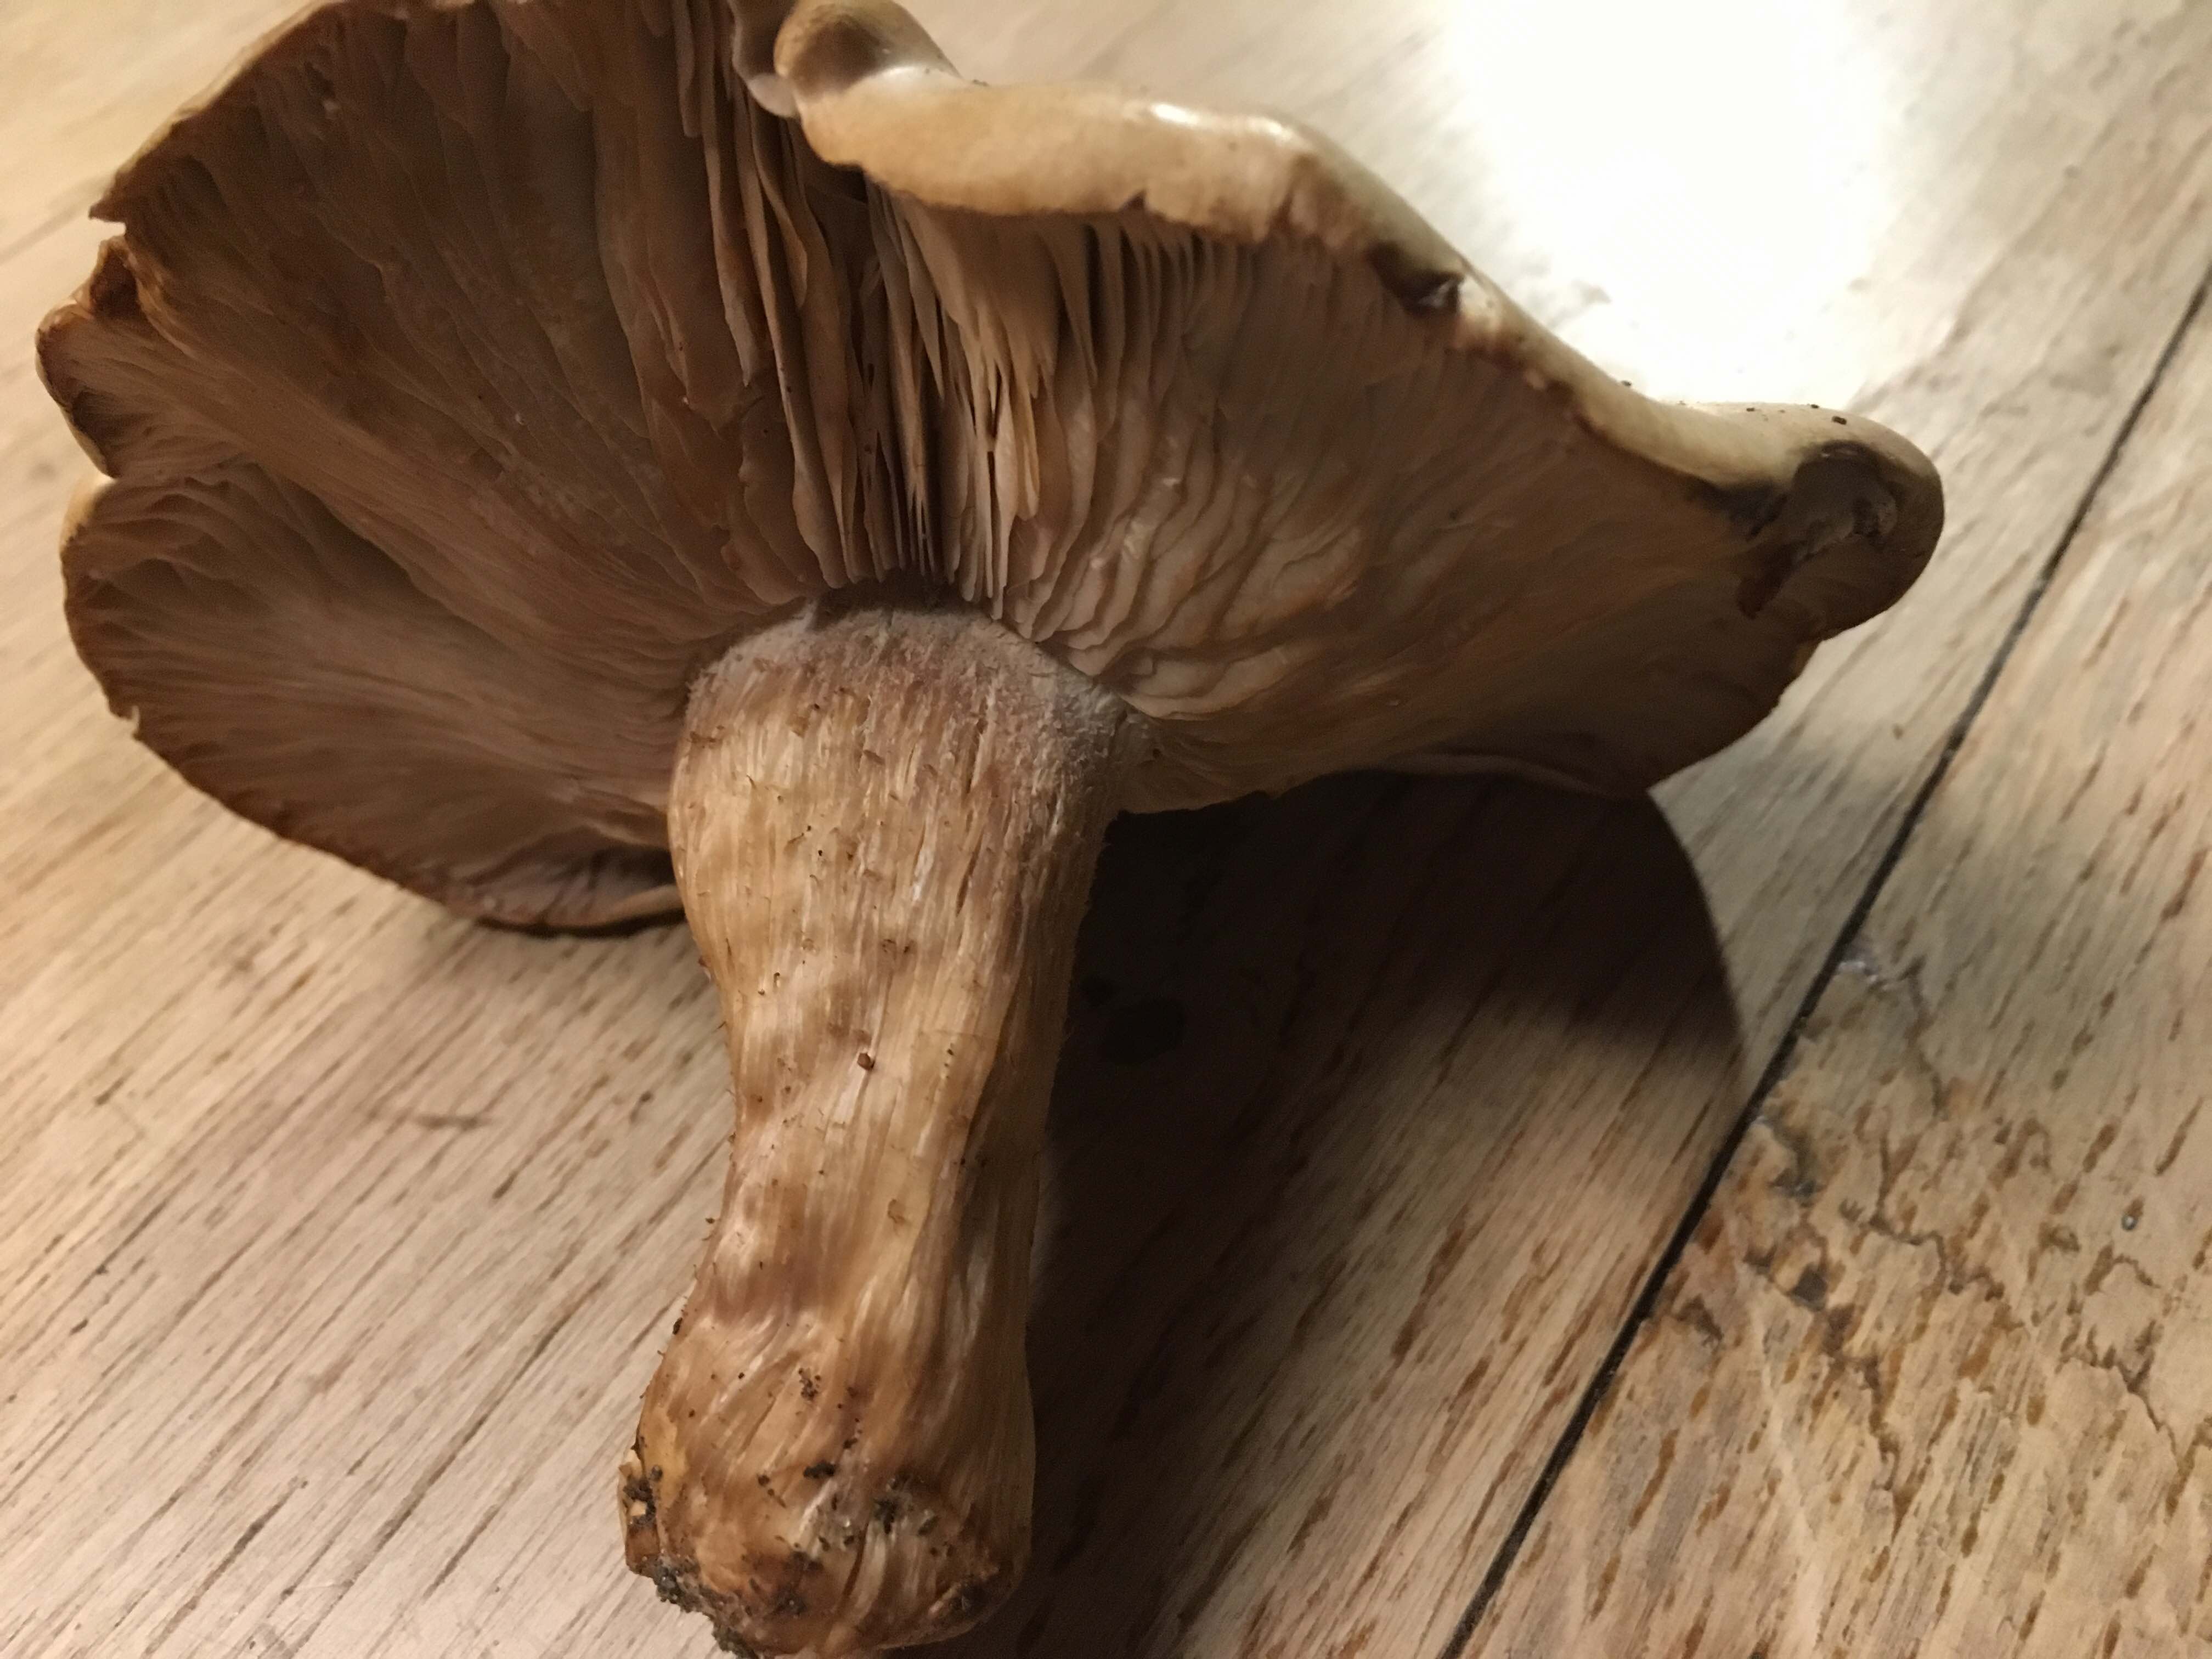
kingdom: Fungi
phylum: Basidiomycota
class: Agaricomycetes
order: Agaricales
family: Tricholomataceae
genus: Lepista
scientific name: Lepista irina
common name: violduftende hekseringshat
